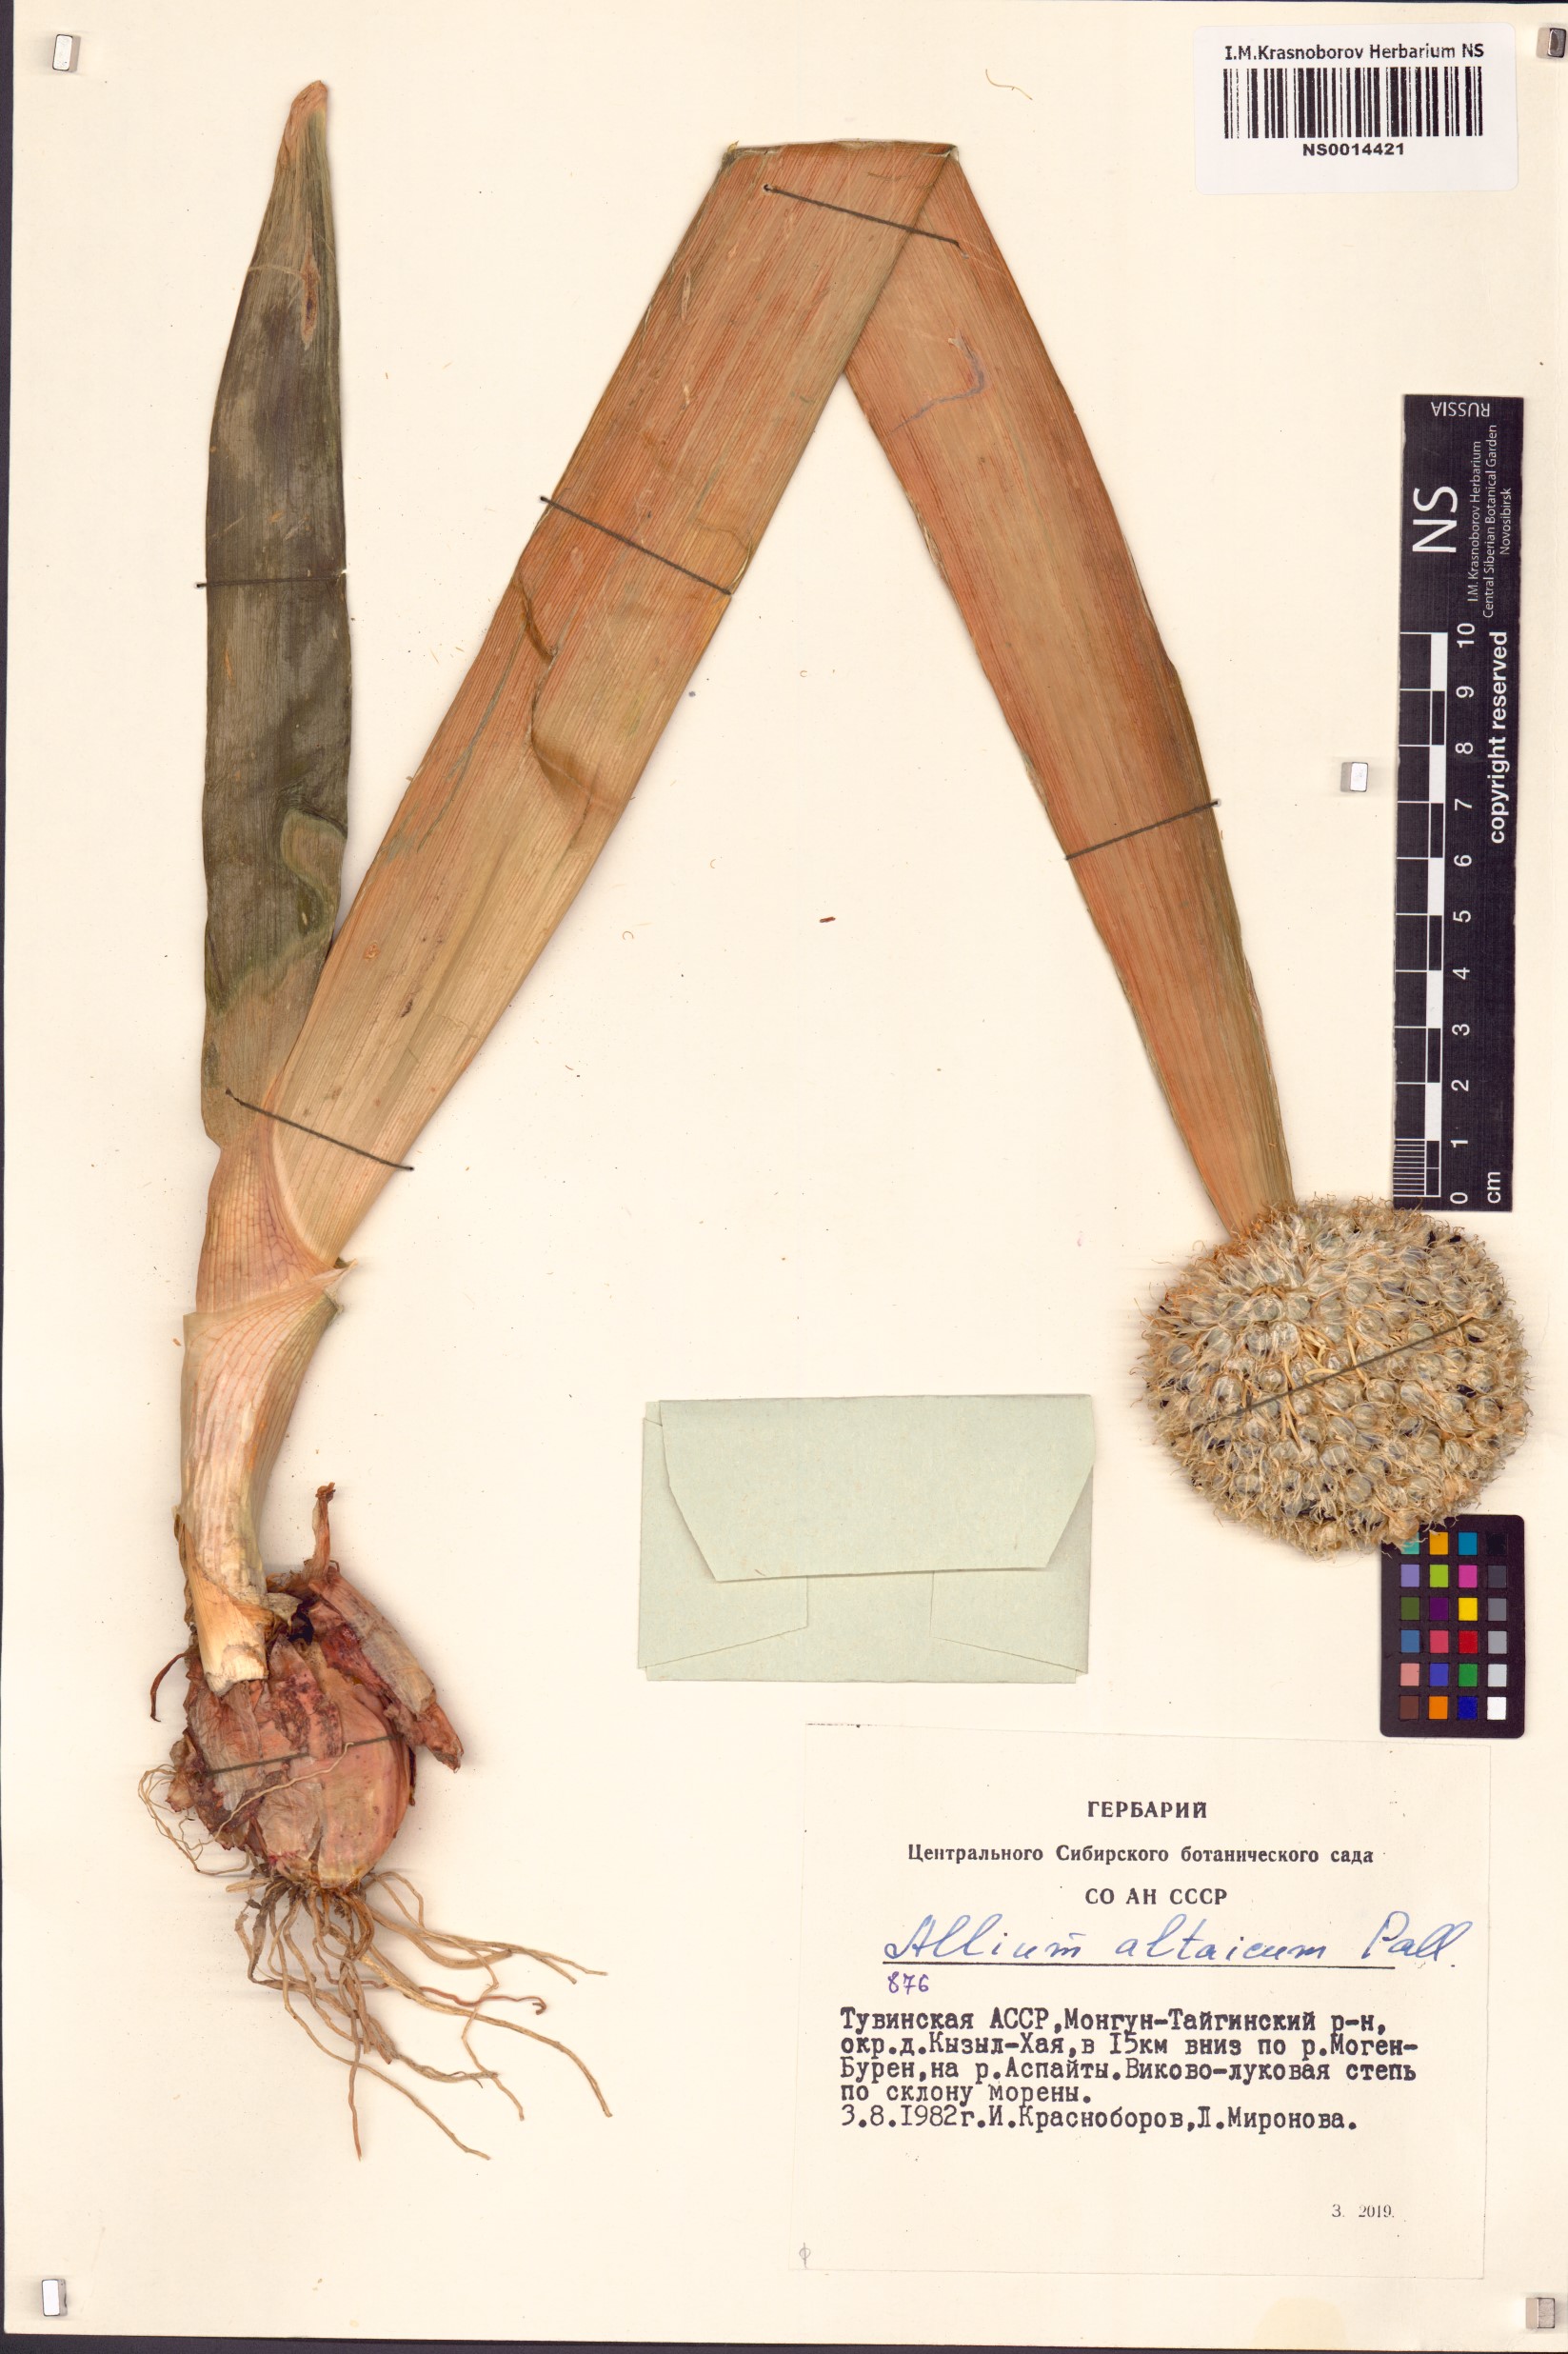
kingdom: Plantae
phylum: Tracheophyta
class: Liliopsida
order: Asparagales
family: Amaryllidaceae
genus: Allium
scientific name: Allium altaicum
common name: Altai onion
